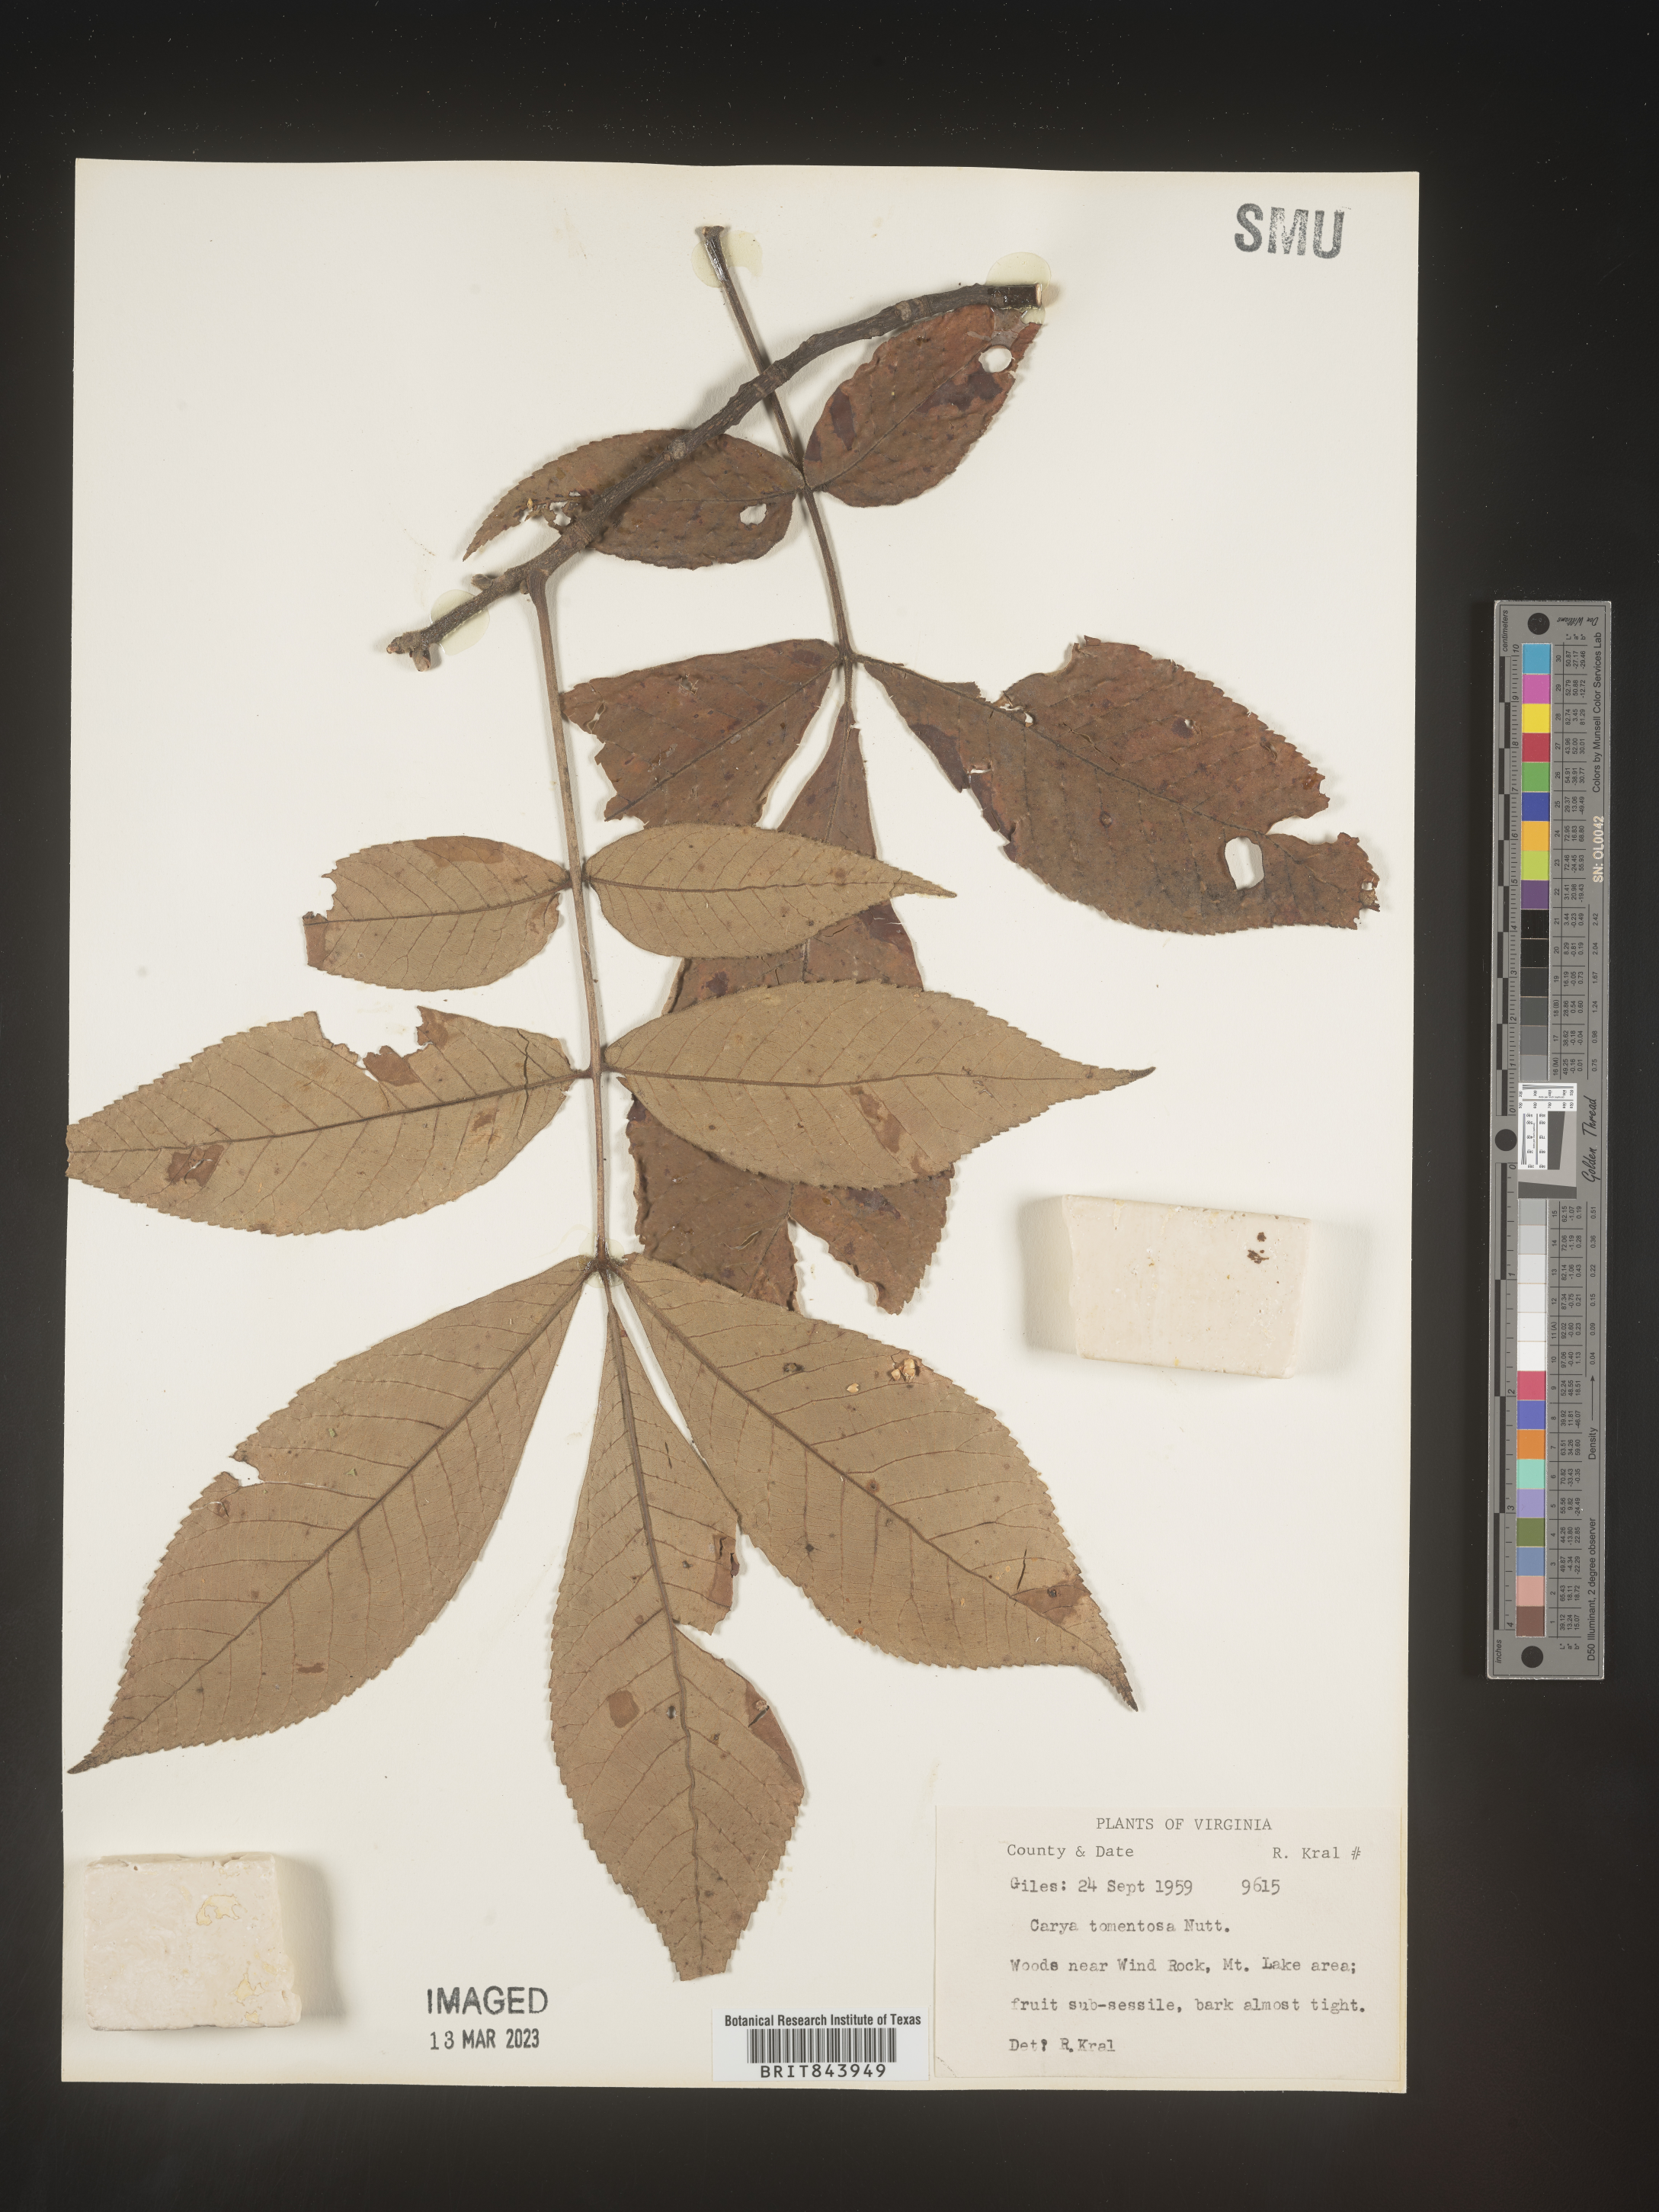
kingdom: Plantae
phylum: Tracheophyta
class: Magnoliopsida
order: Fagales
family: Juglandaceae
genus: Carya
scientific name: Carya alba
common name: Mockernut hickory
